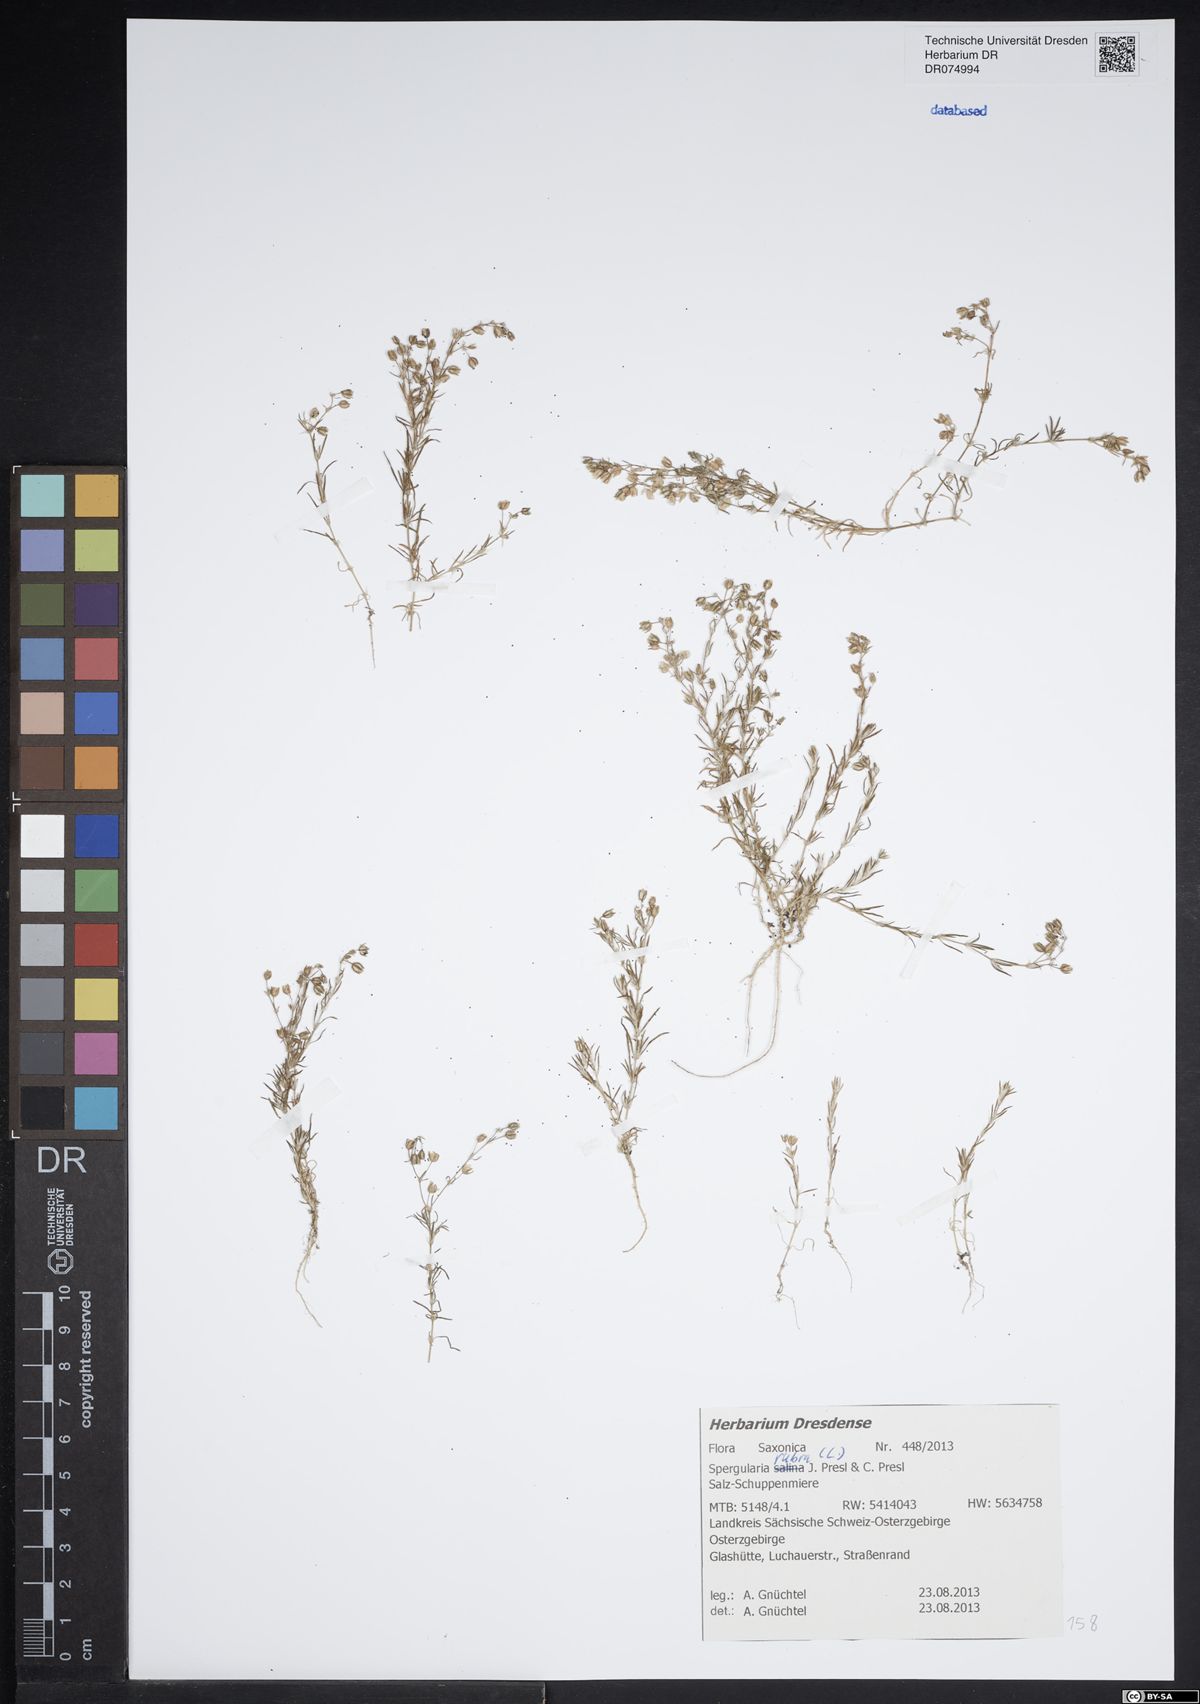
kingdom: Plantae
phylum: Tracheophyta
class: Magnoliopsida
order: Caryophyllales
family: Caryophyllaceae
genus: Spergularia
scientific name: Spergularia rubra
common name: Red sand-spurrey
